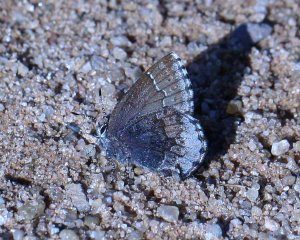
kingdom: Animalia
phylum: Arthropoda
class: Insecta
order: Lepidoptera
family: Lycaenidae
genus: Callophrys
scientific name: Callophrys polios
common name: Hoary Elfin
